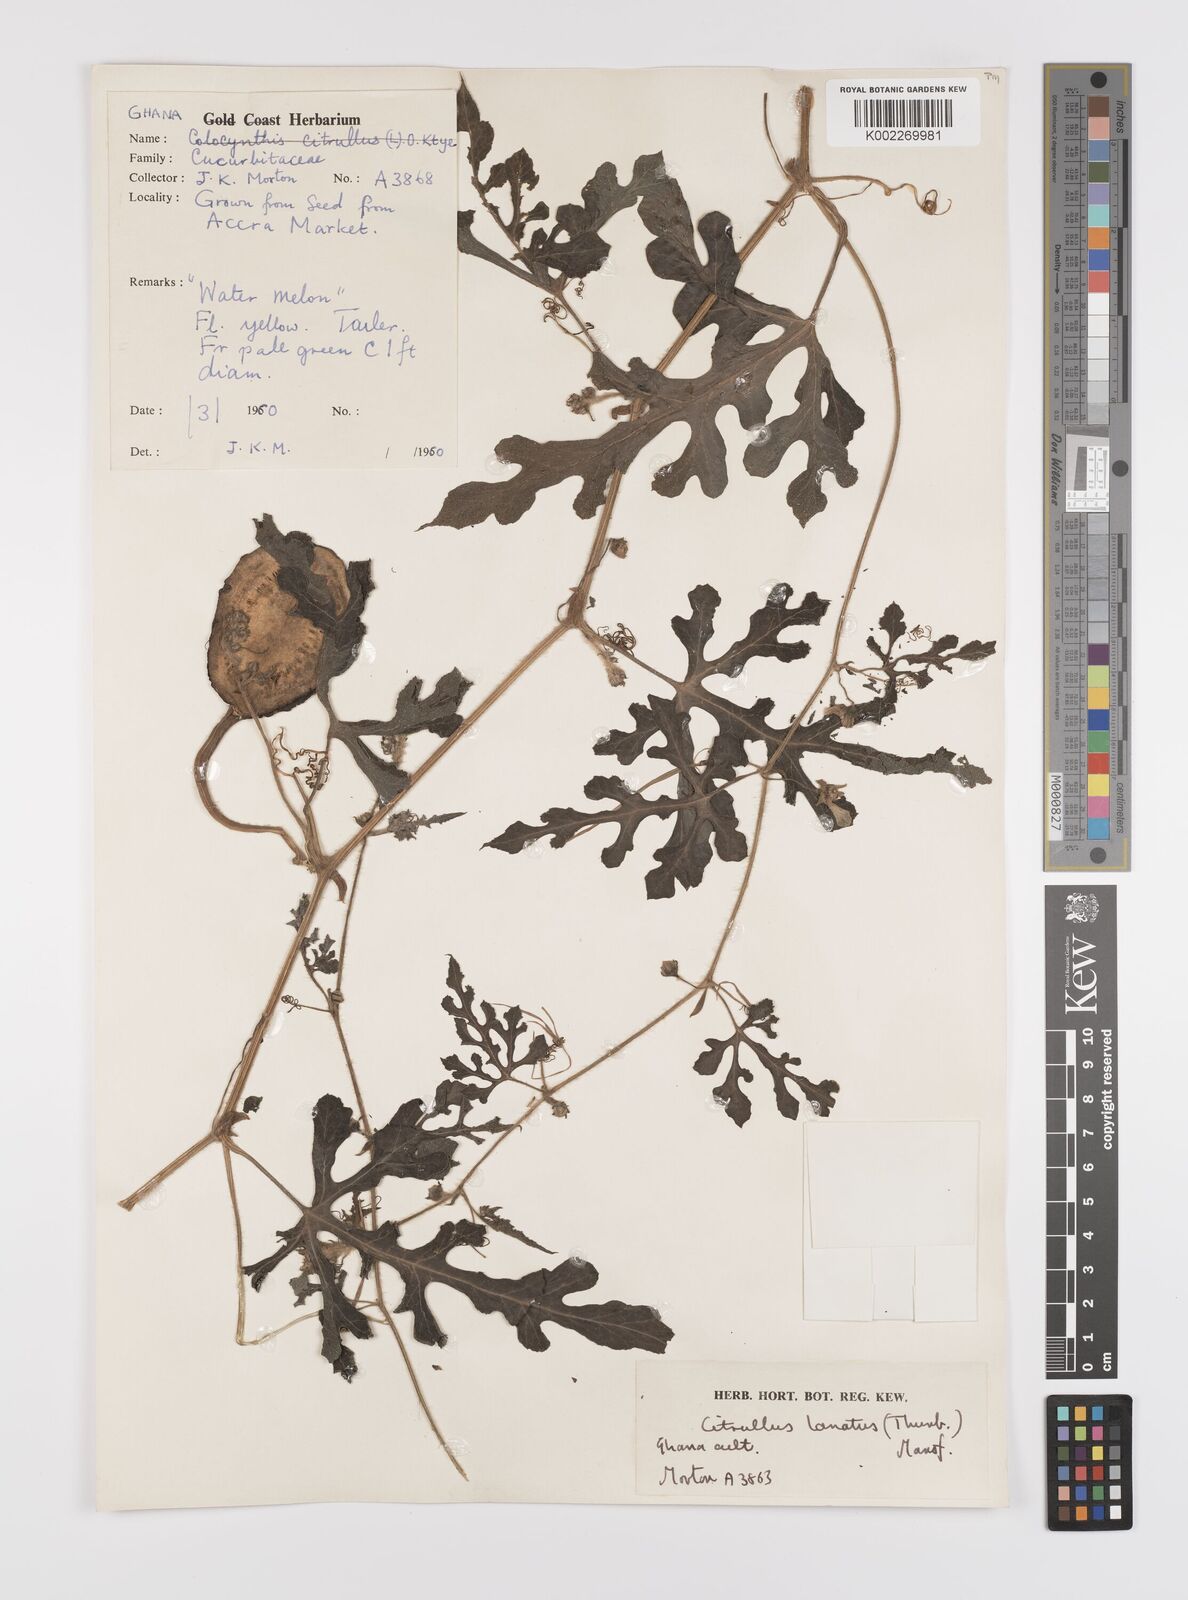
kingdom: Plantae
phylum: Tracheophyta
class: Magnoliopsida
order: Cucurbitales
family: Cucurbitaceae
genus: Citrullus
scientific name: Citrullus lanatus
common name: Watermelon
